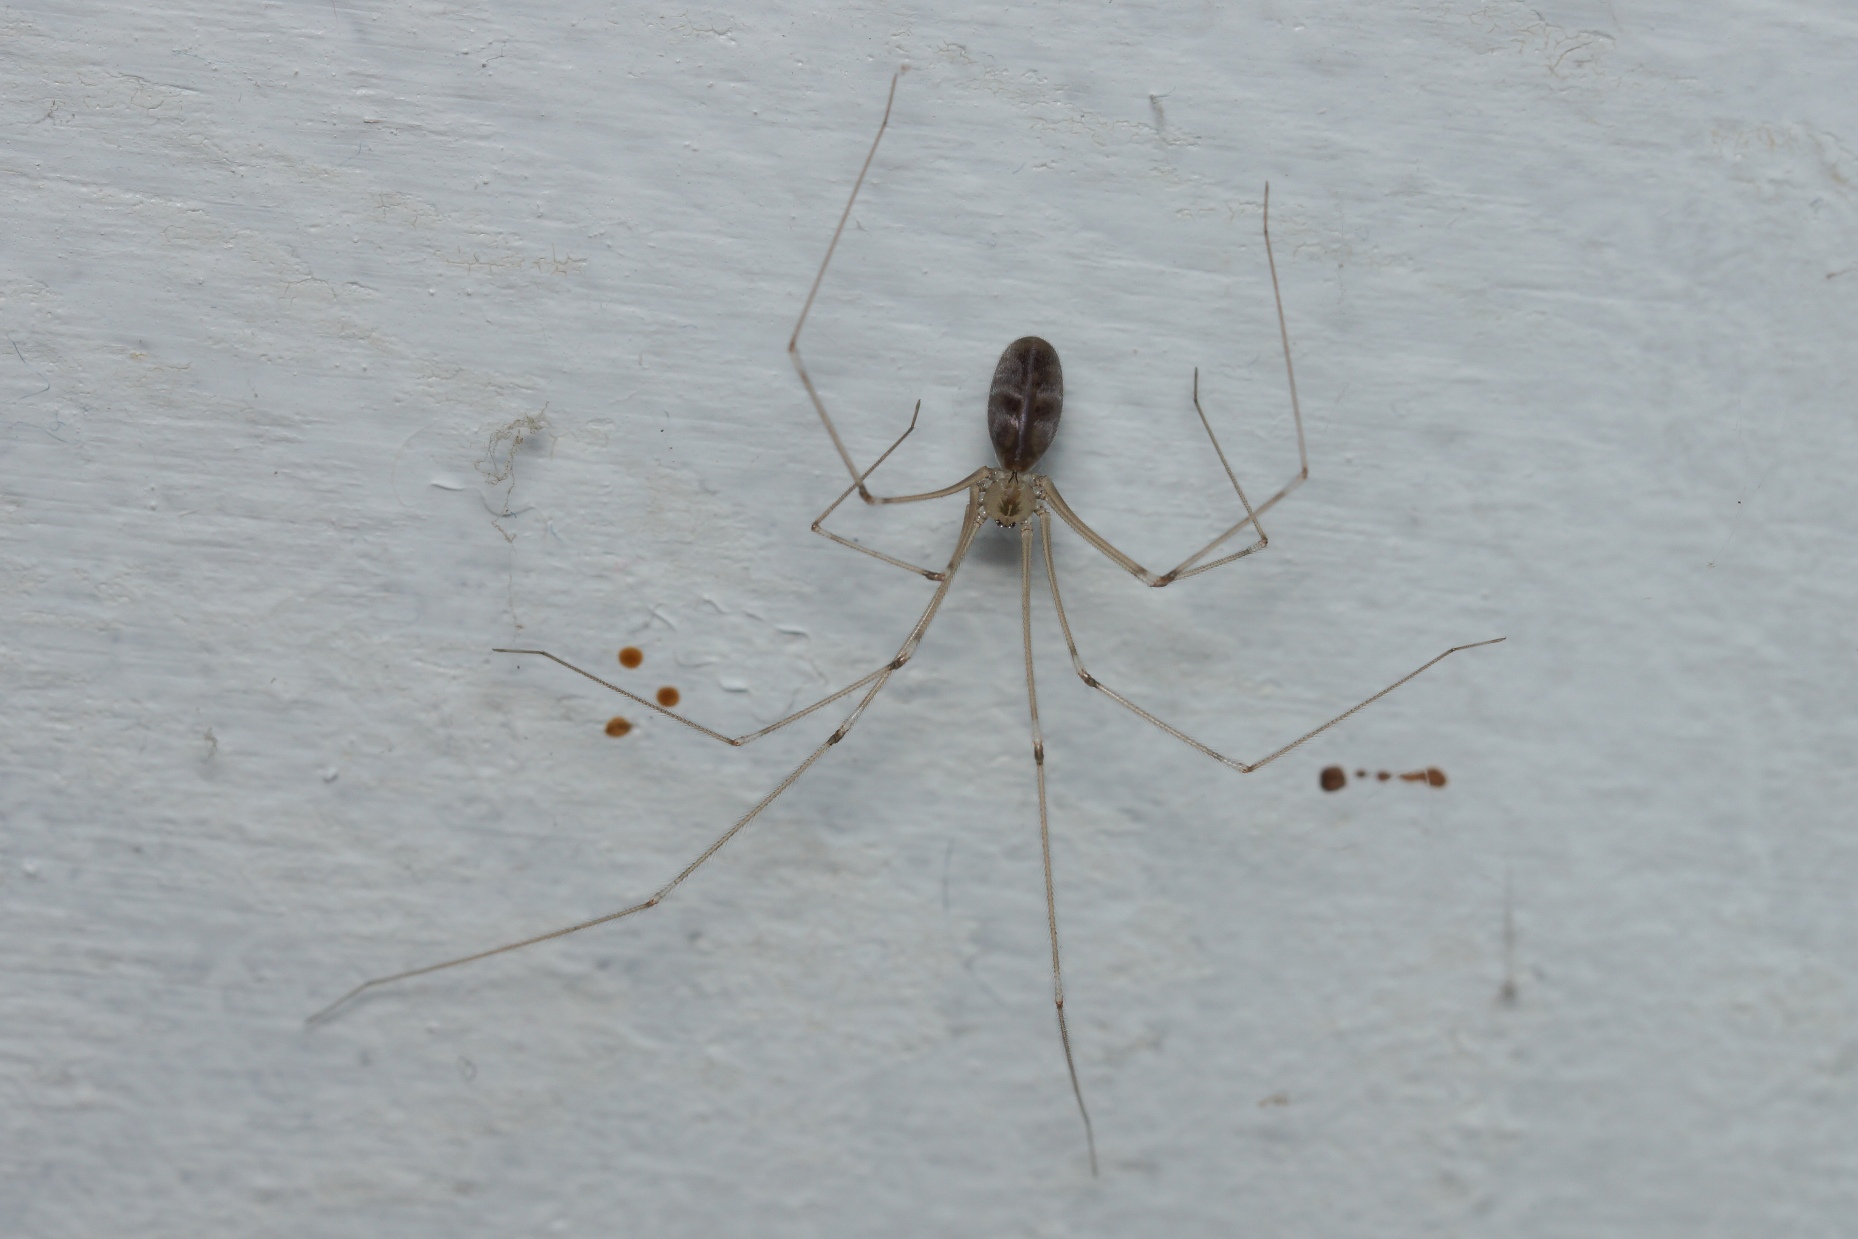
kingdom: Animalia
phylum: Arthropoda
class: Arachnida
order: Araneae
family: Pholcidae
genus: Pholcus
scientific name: Pholcus phalangioides
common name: Mejeredderkop
